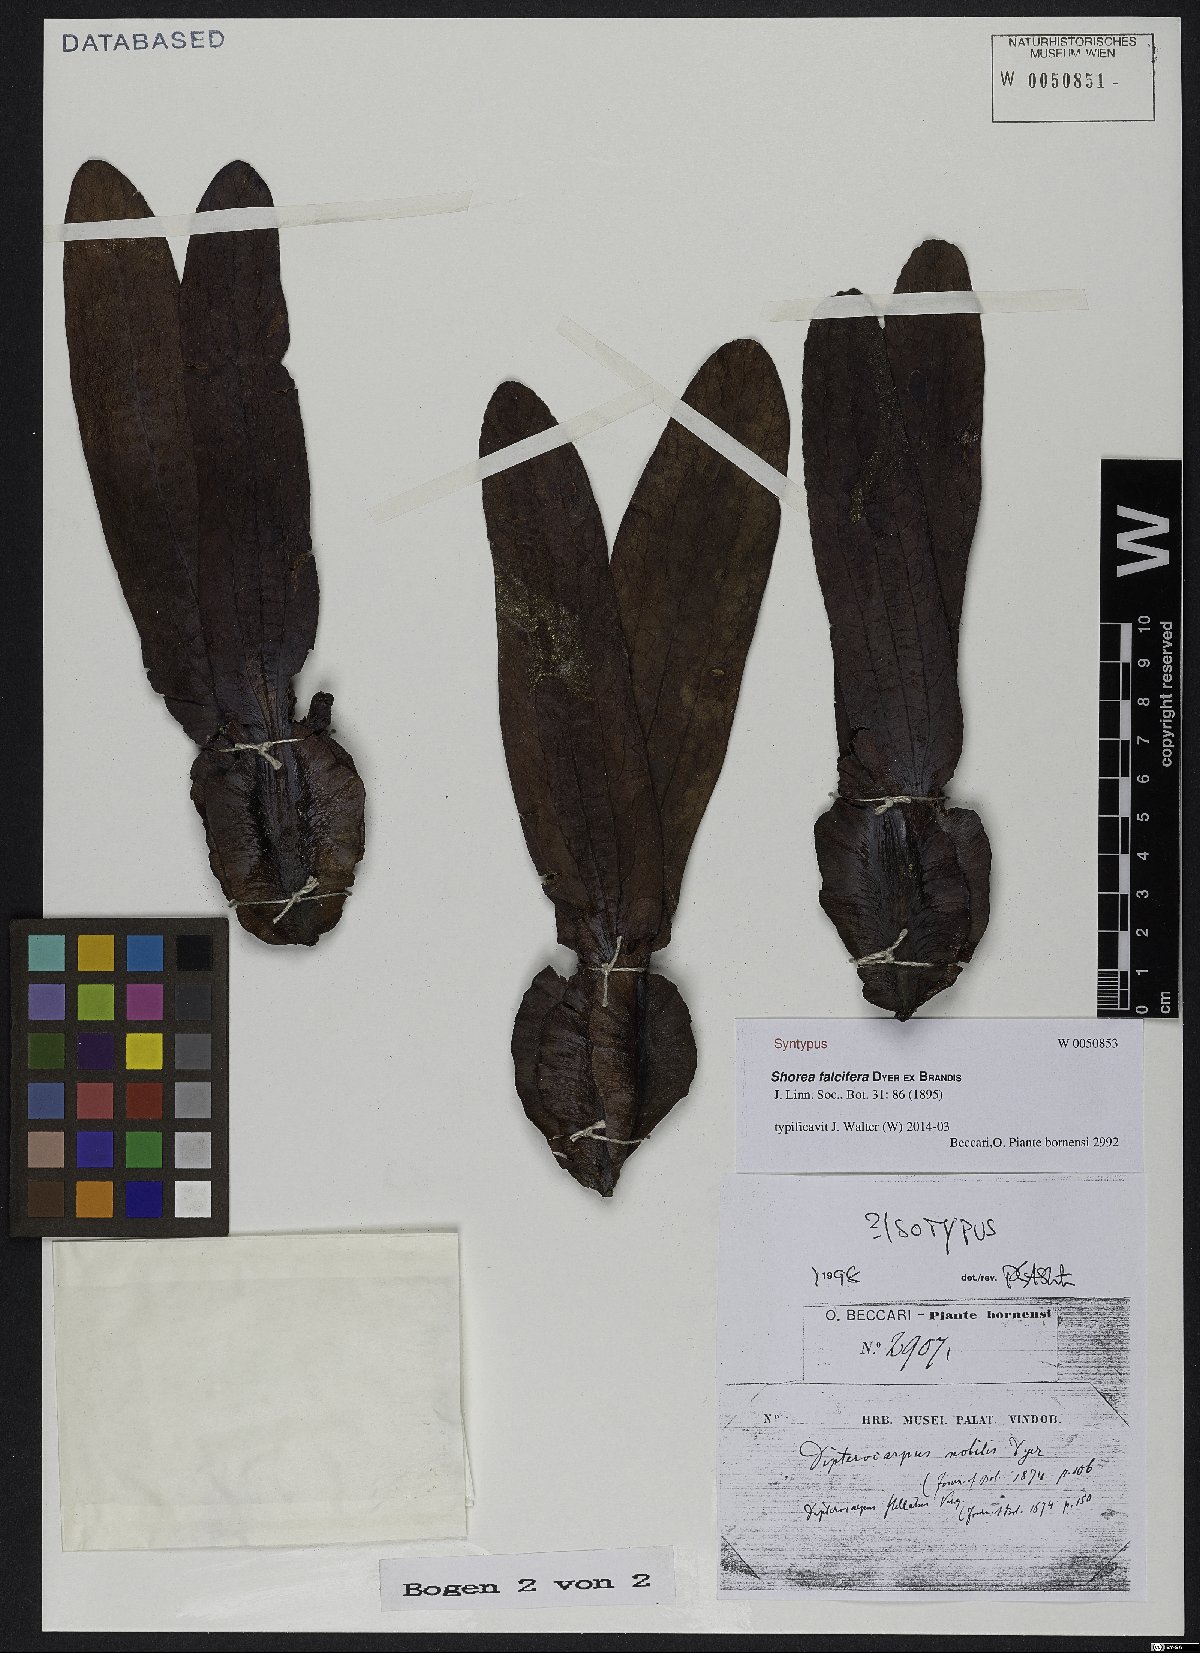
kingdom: Plantae
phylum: Tracheophyta
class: Magnoliopsida
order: Malvales
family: Dipterocarpaceae
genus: Dipterocarpus
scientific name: Dipterocarpus stellatus
